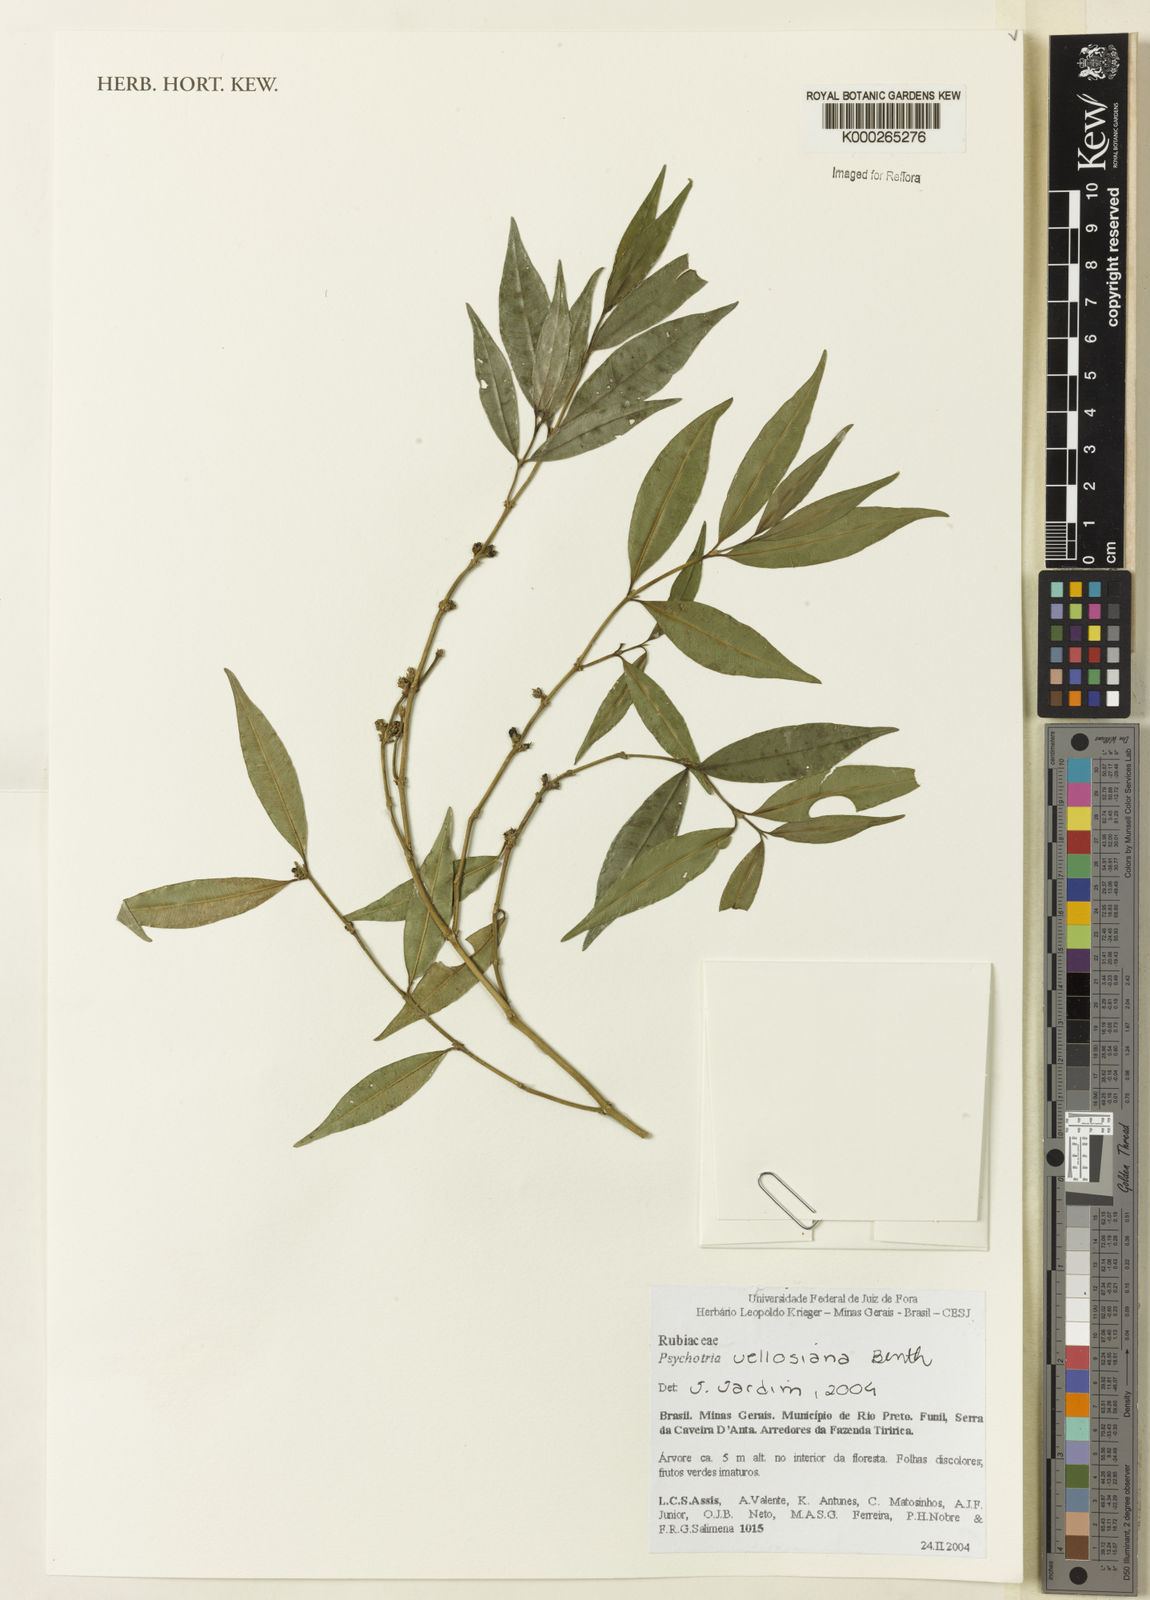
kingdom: Plantae
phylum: Tracheophyta
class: Magnoliopsida
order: Gentianales
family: Rubiaceae
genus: Palicourea
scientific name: Palicourea sessilis
